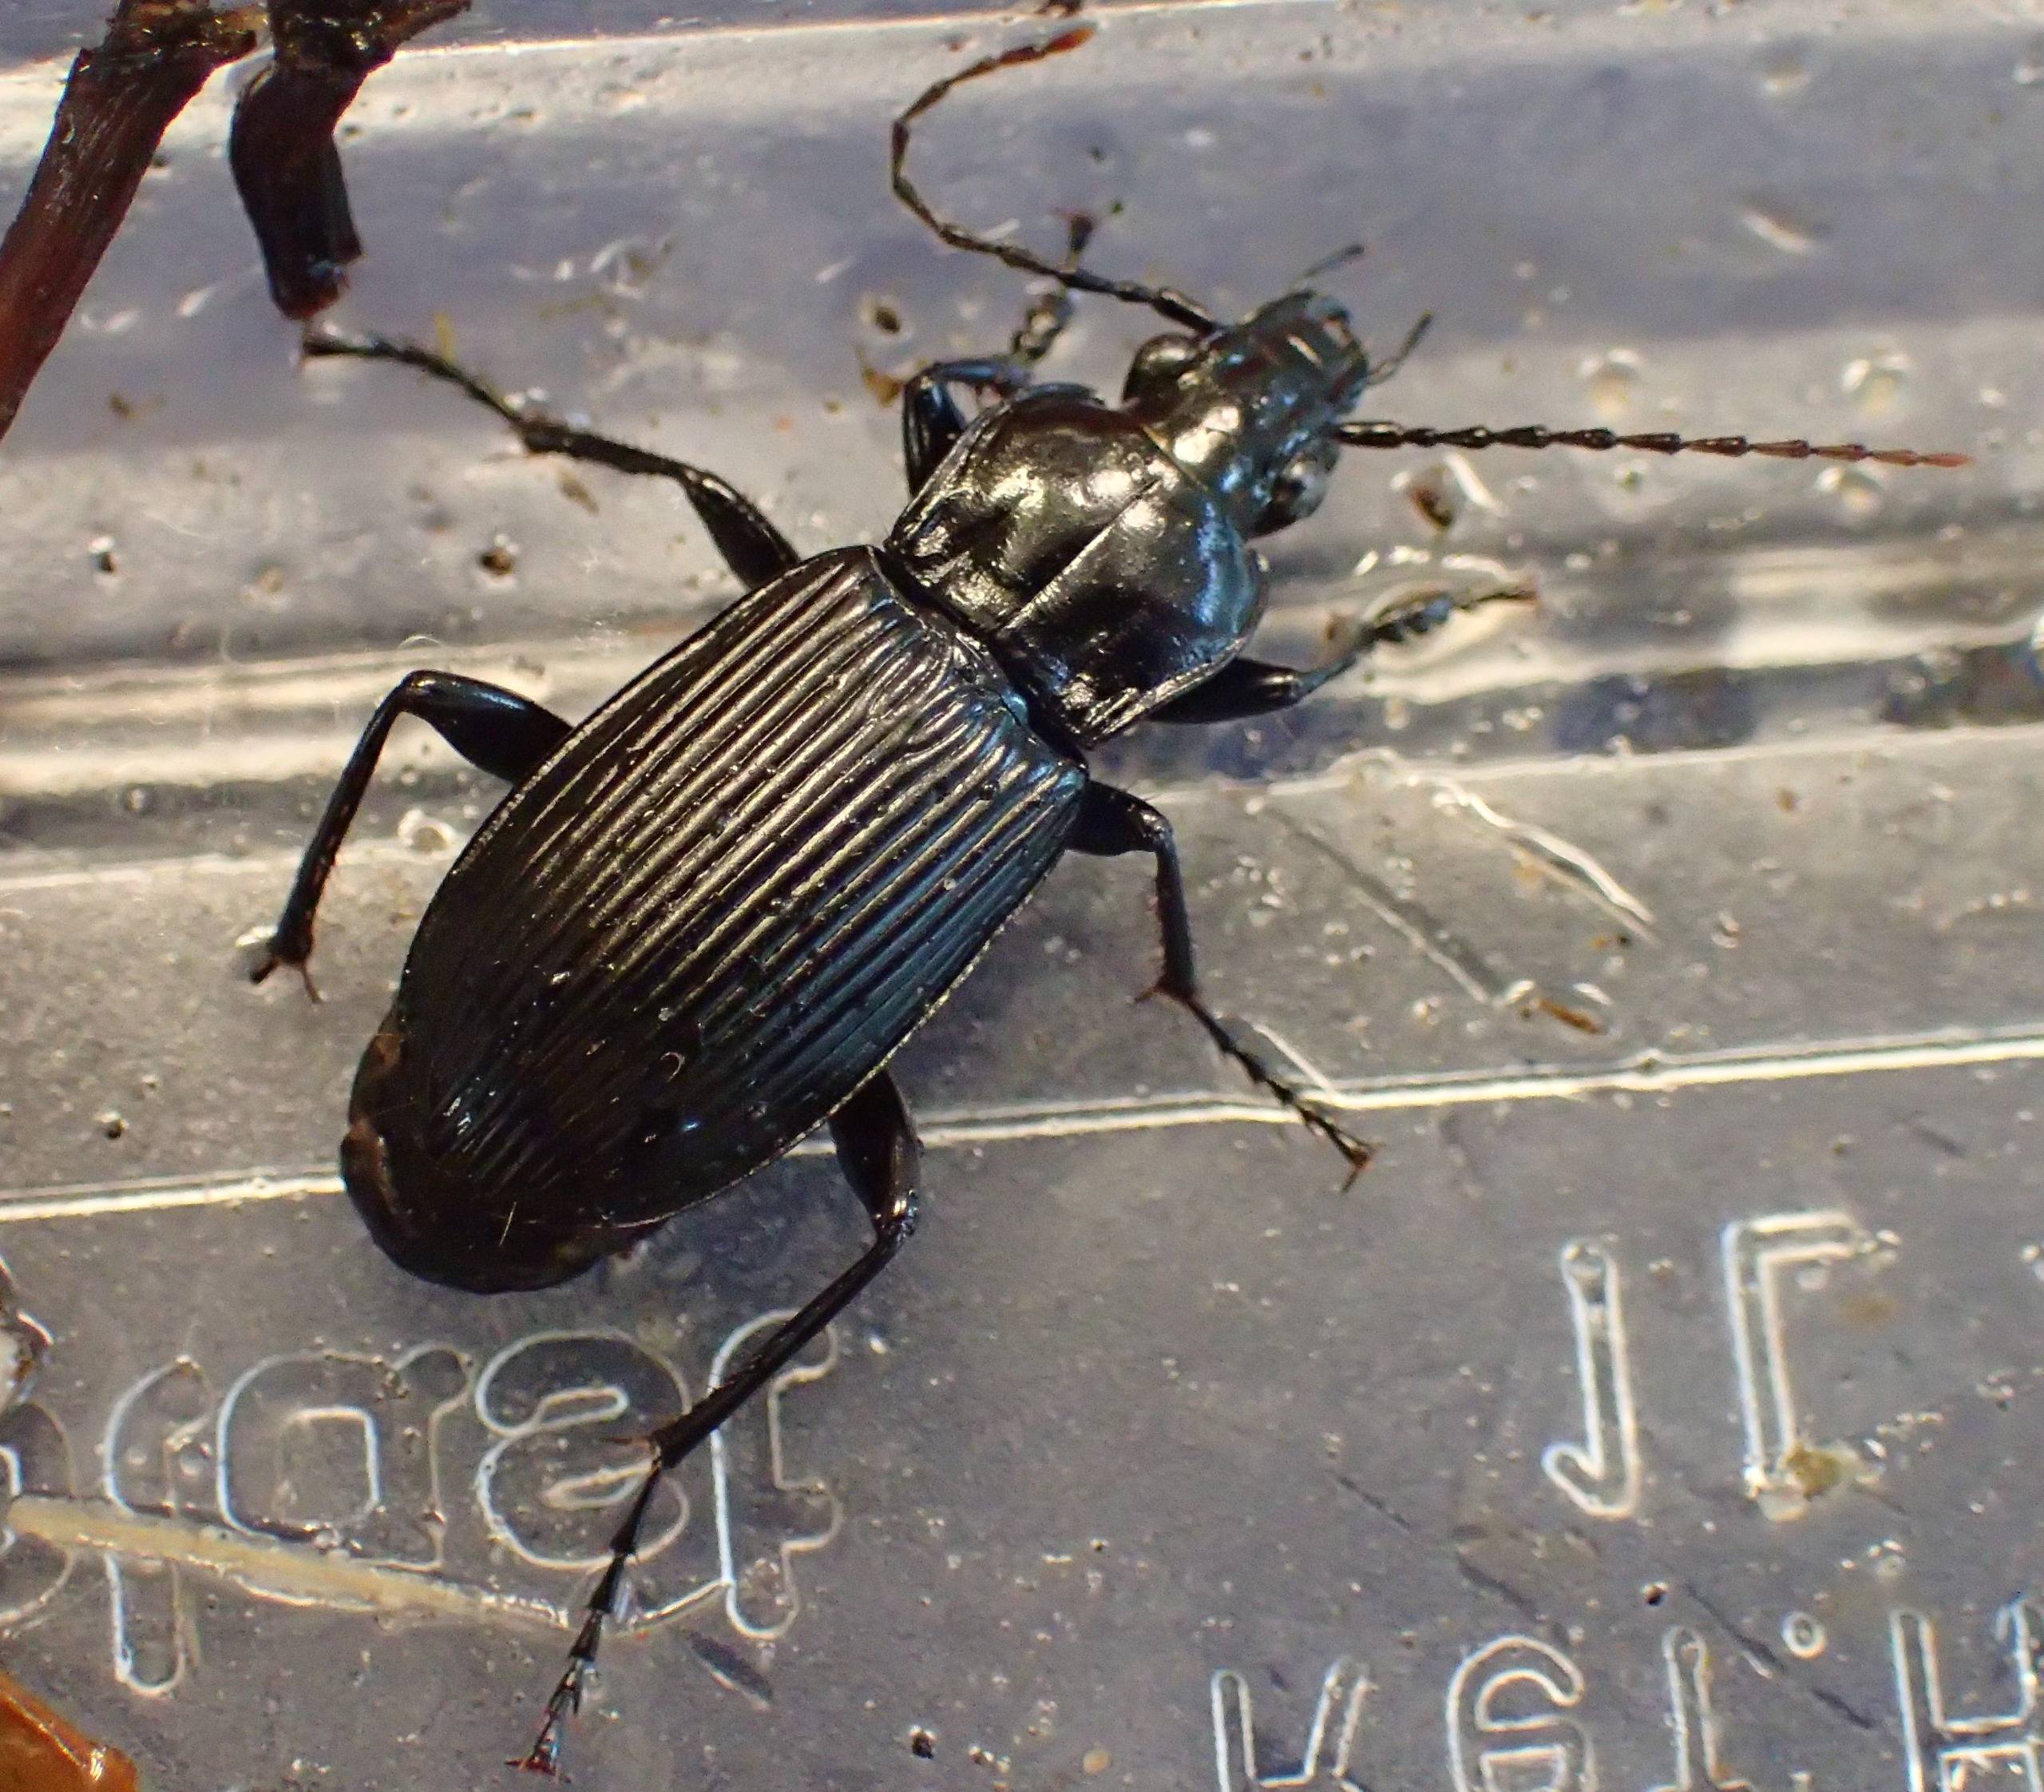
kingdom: Animalia
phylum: Arthropoda
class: Insecta
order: Coleoptera
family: Carabidae
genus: Pterostichus
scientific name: Pterostichus niger
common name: Skovjordløber
